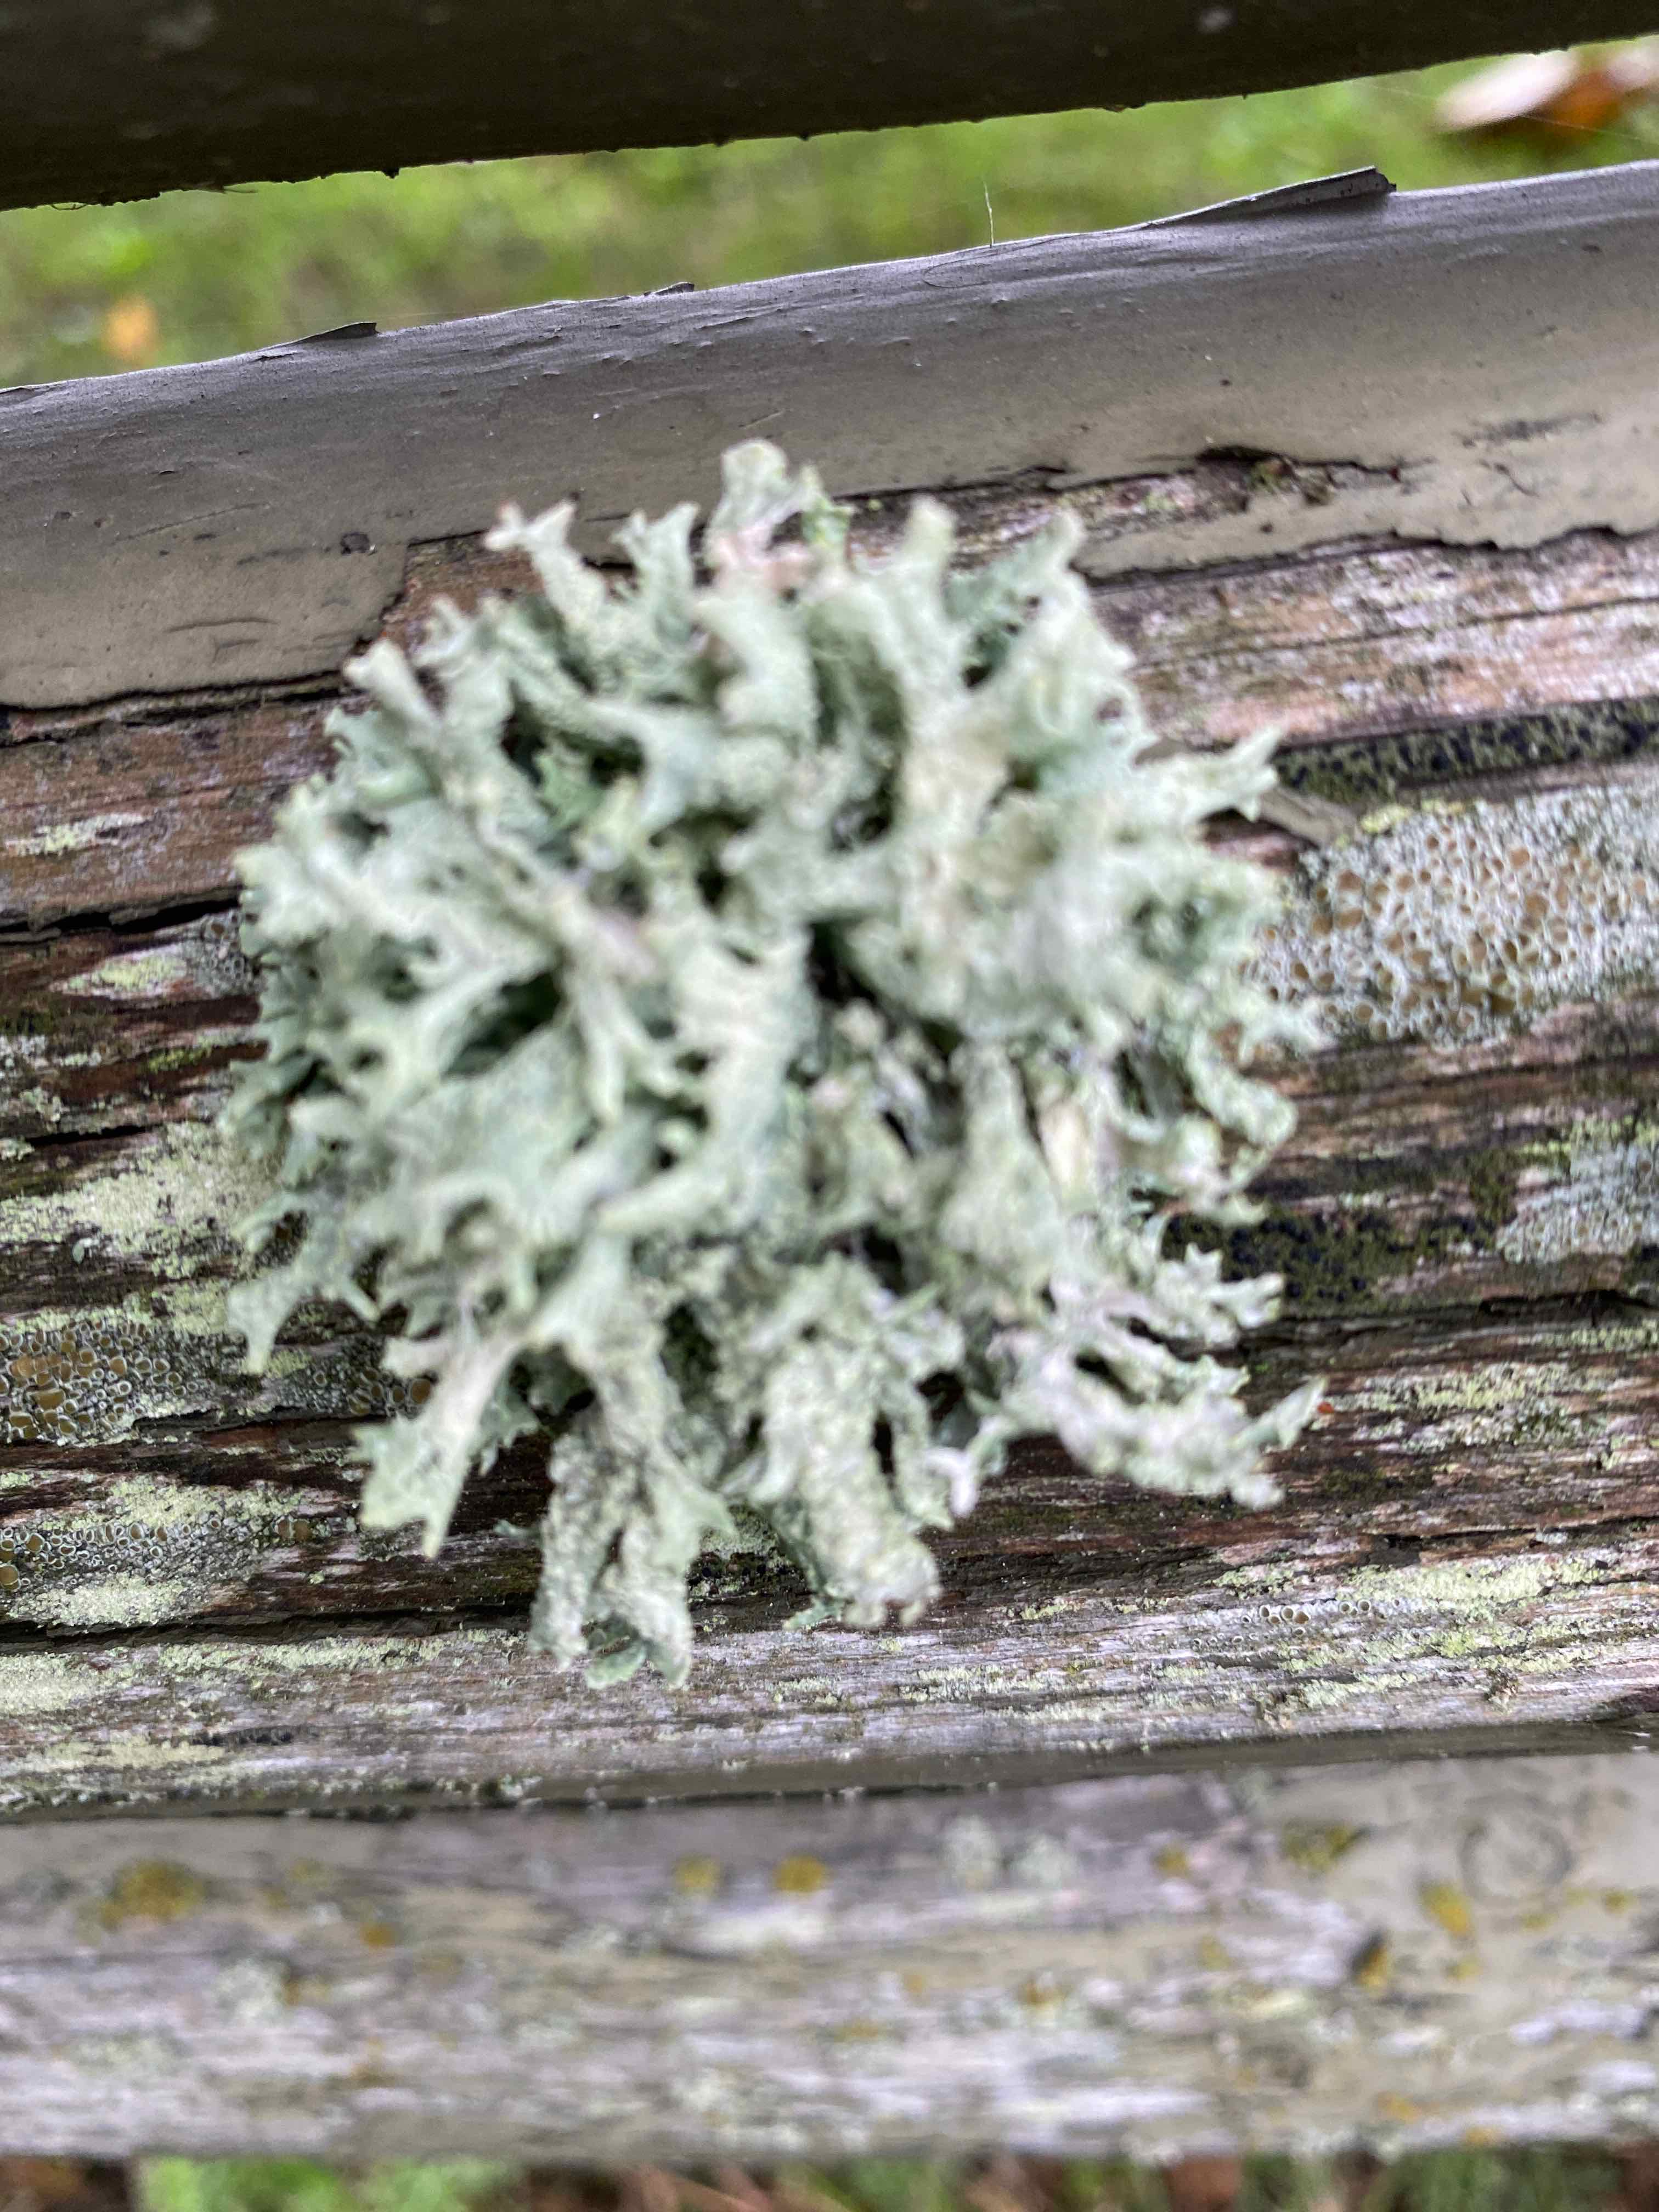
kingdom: Fungi
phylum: Ascomycota
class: Lecanoromycetes
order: Lecanorales
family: Parmeliaceae
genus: Evernia
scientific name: Evernia prunastri
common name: almindelig slåenlav
